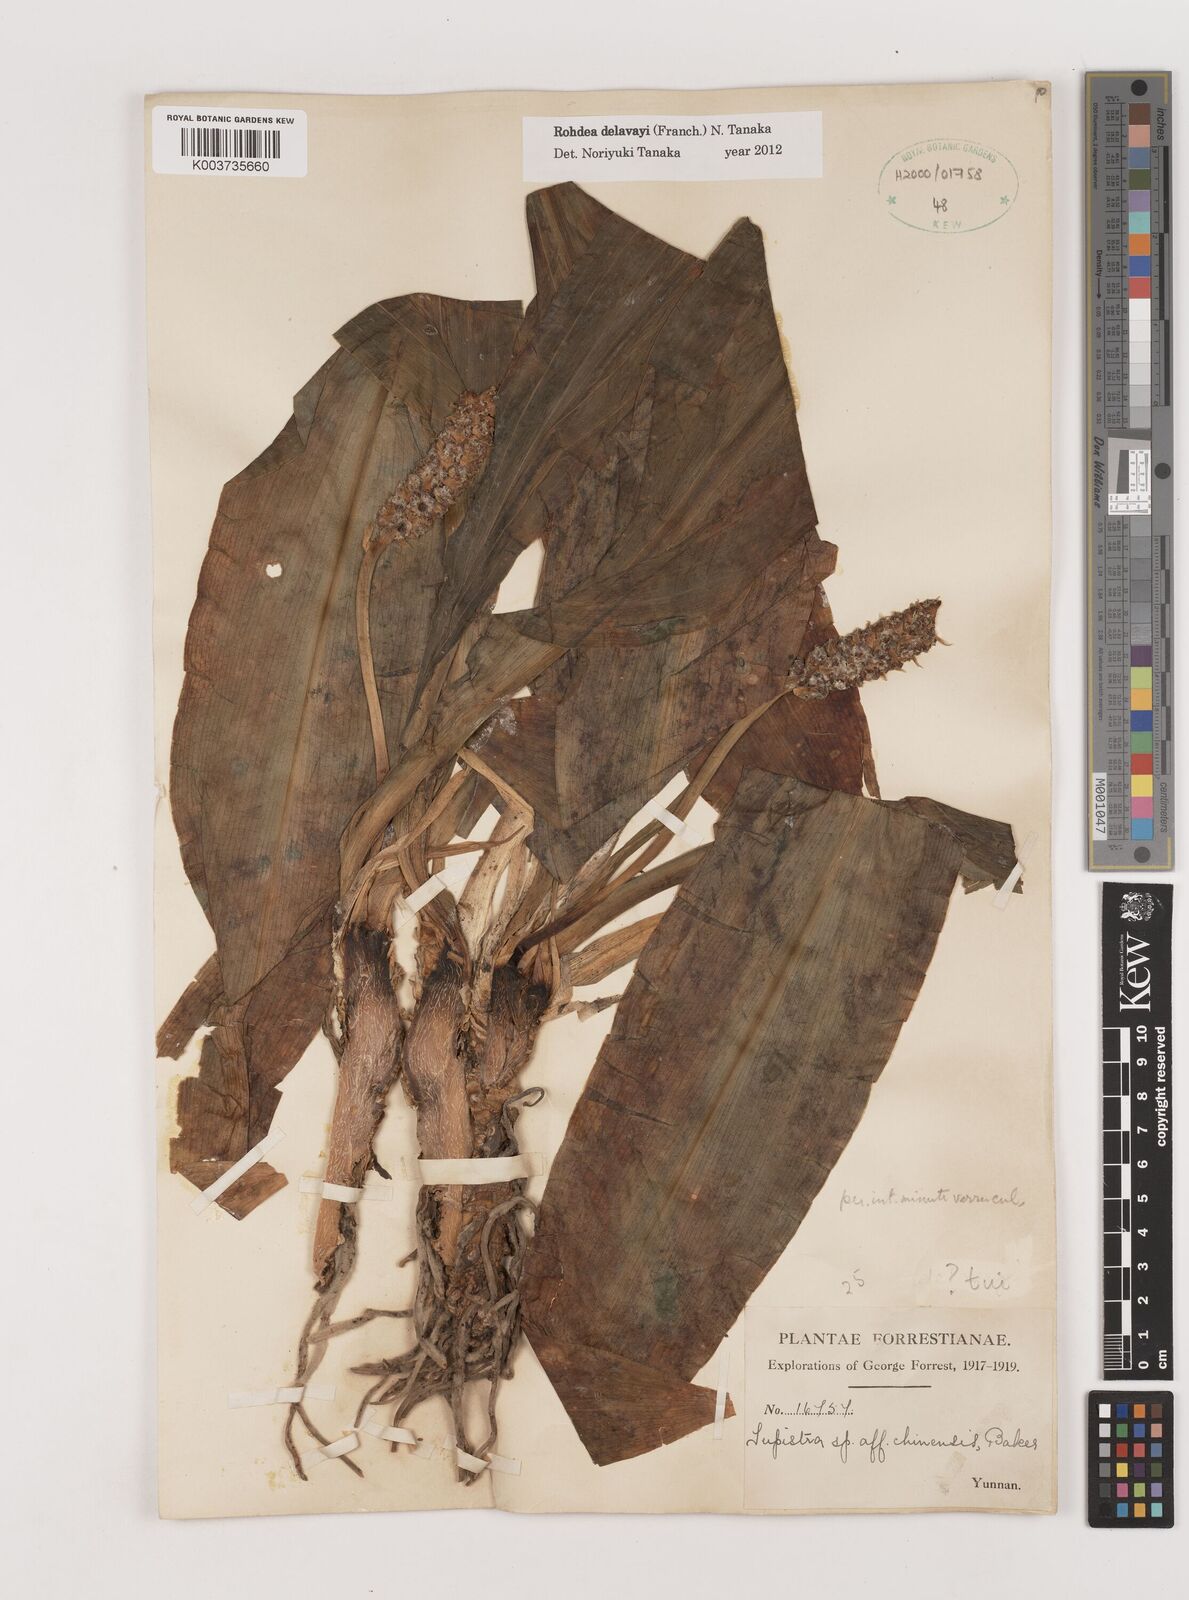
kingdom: Plantae
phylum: Tracheophyta
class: Liliopsida
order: Asparagales
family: Asparagaceae
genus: Rohdea
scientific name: Rohdea delavayi
